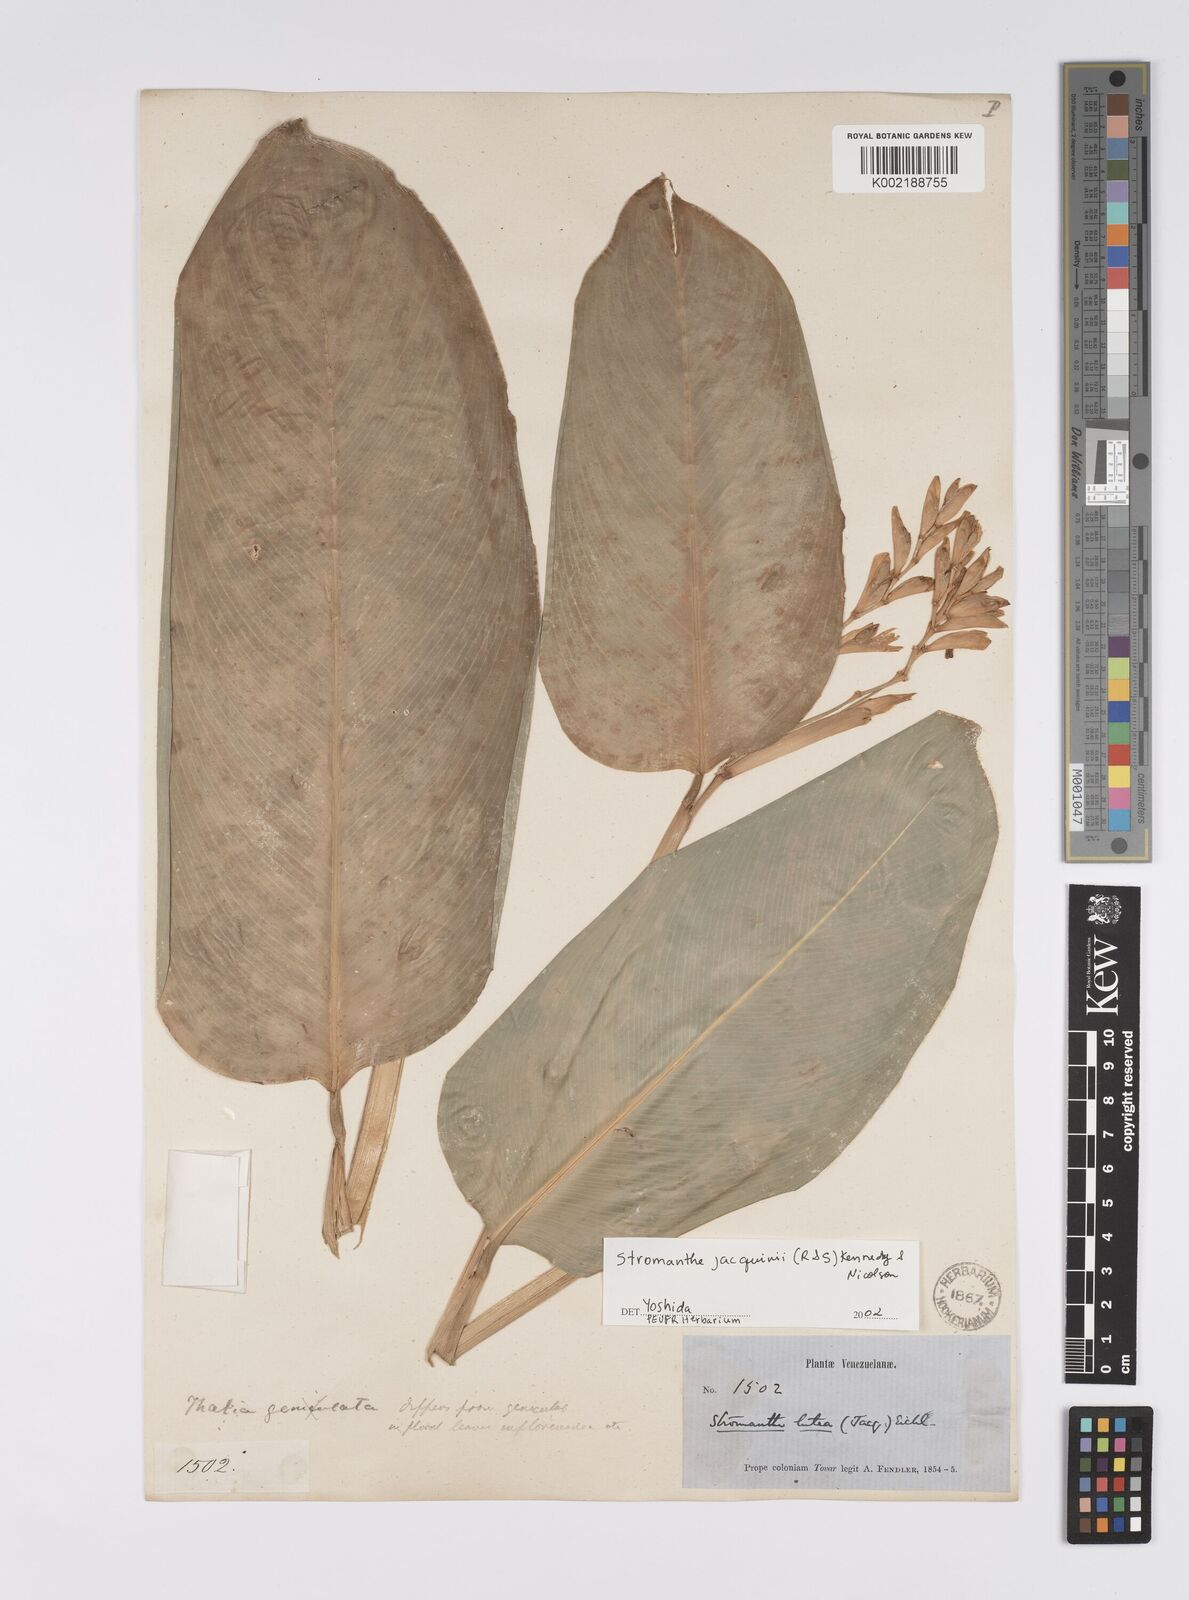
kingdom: Plantae
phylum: Tracheophyta
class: Liliopsida
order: Zingiberales
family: Marantaceae
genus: Stromanthe
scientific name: Stromanthe jacquinii
